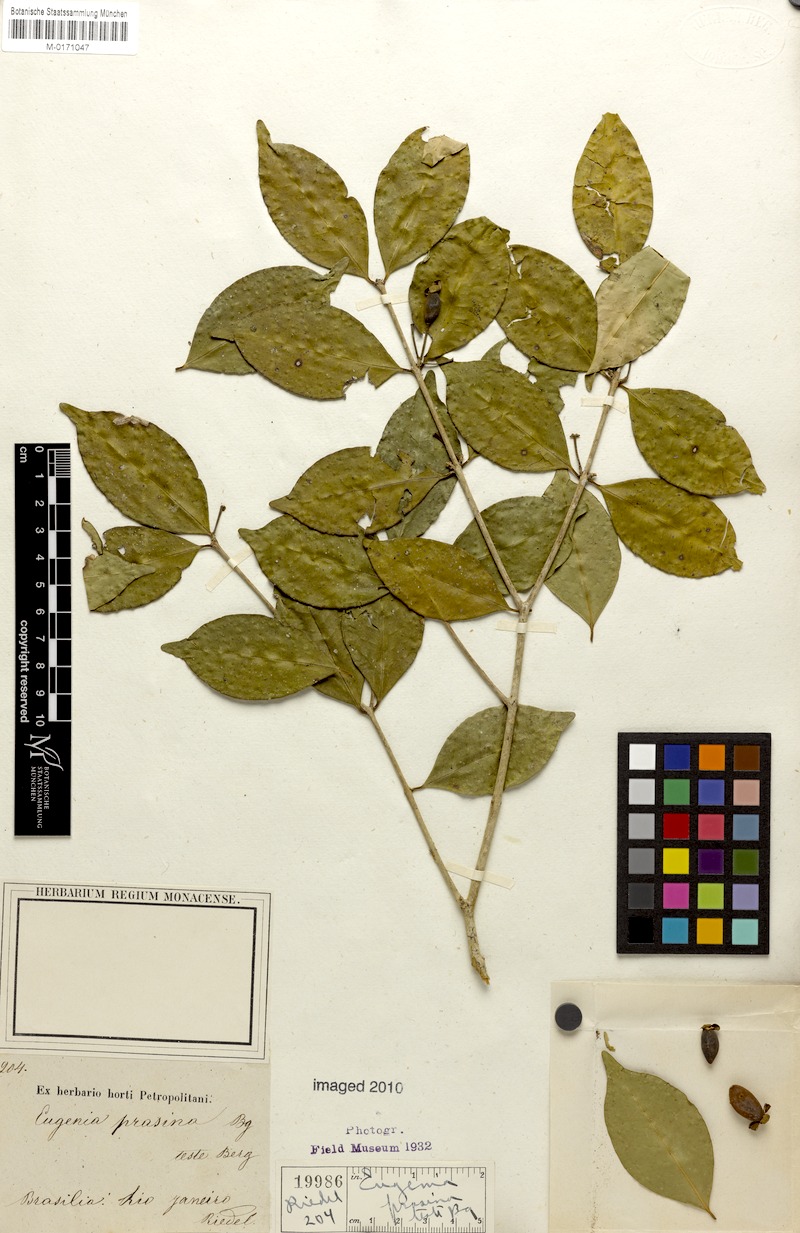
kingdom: Plantae
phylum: Tracheophyta
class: Magnoliopsida
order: Myrtales
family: Myrtaceae
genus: Eugenia
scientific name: Eugenia prasina
